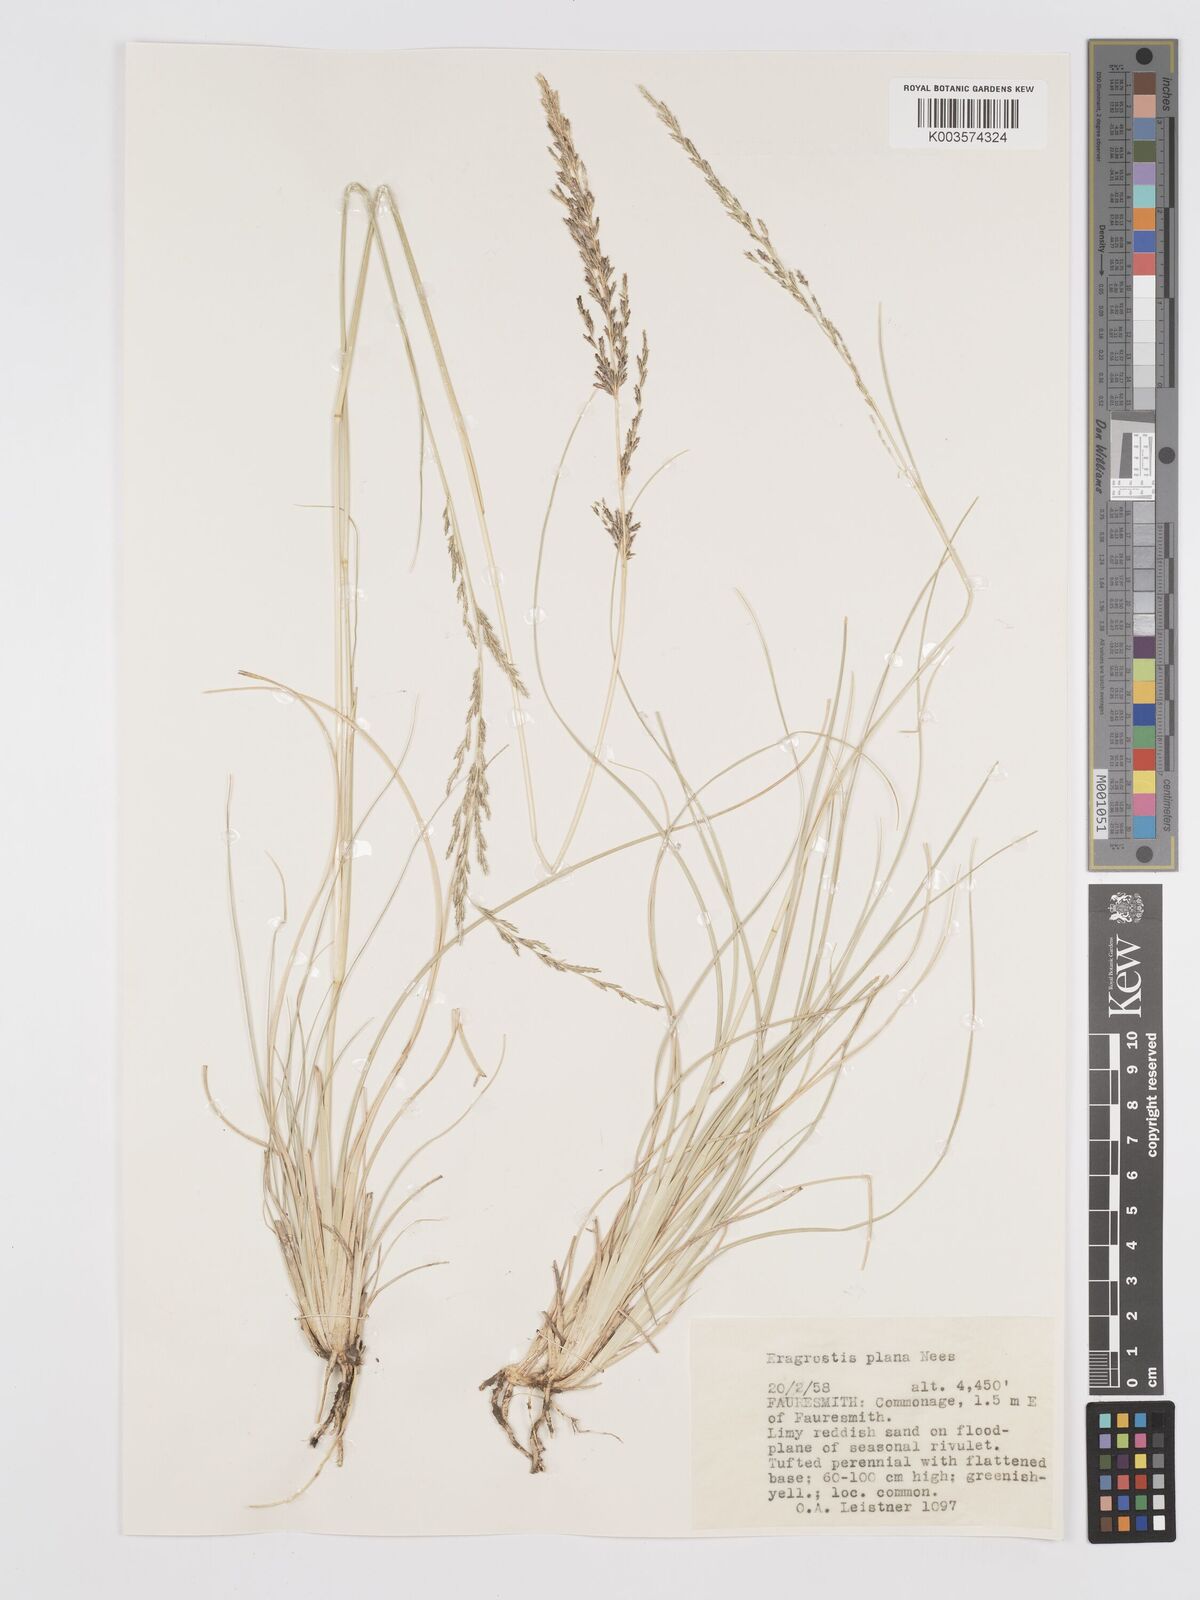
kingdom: Plantae
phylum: Tracheophyta
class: Liliopsida
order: Poales
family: Poaceae
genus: Eragrostis
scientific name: Eragrostis plana
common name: South african lovegrass
